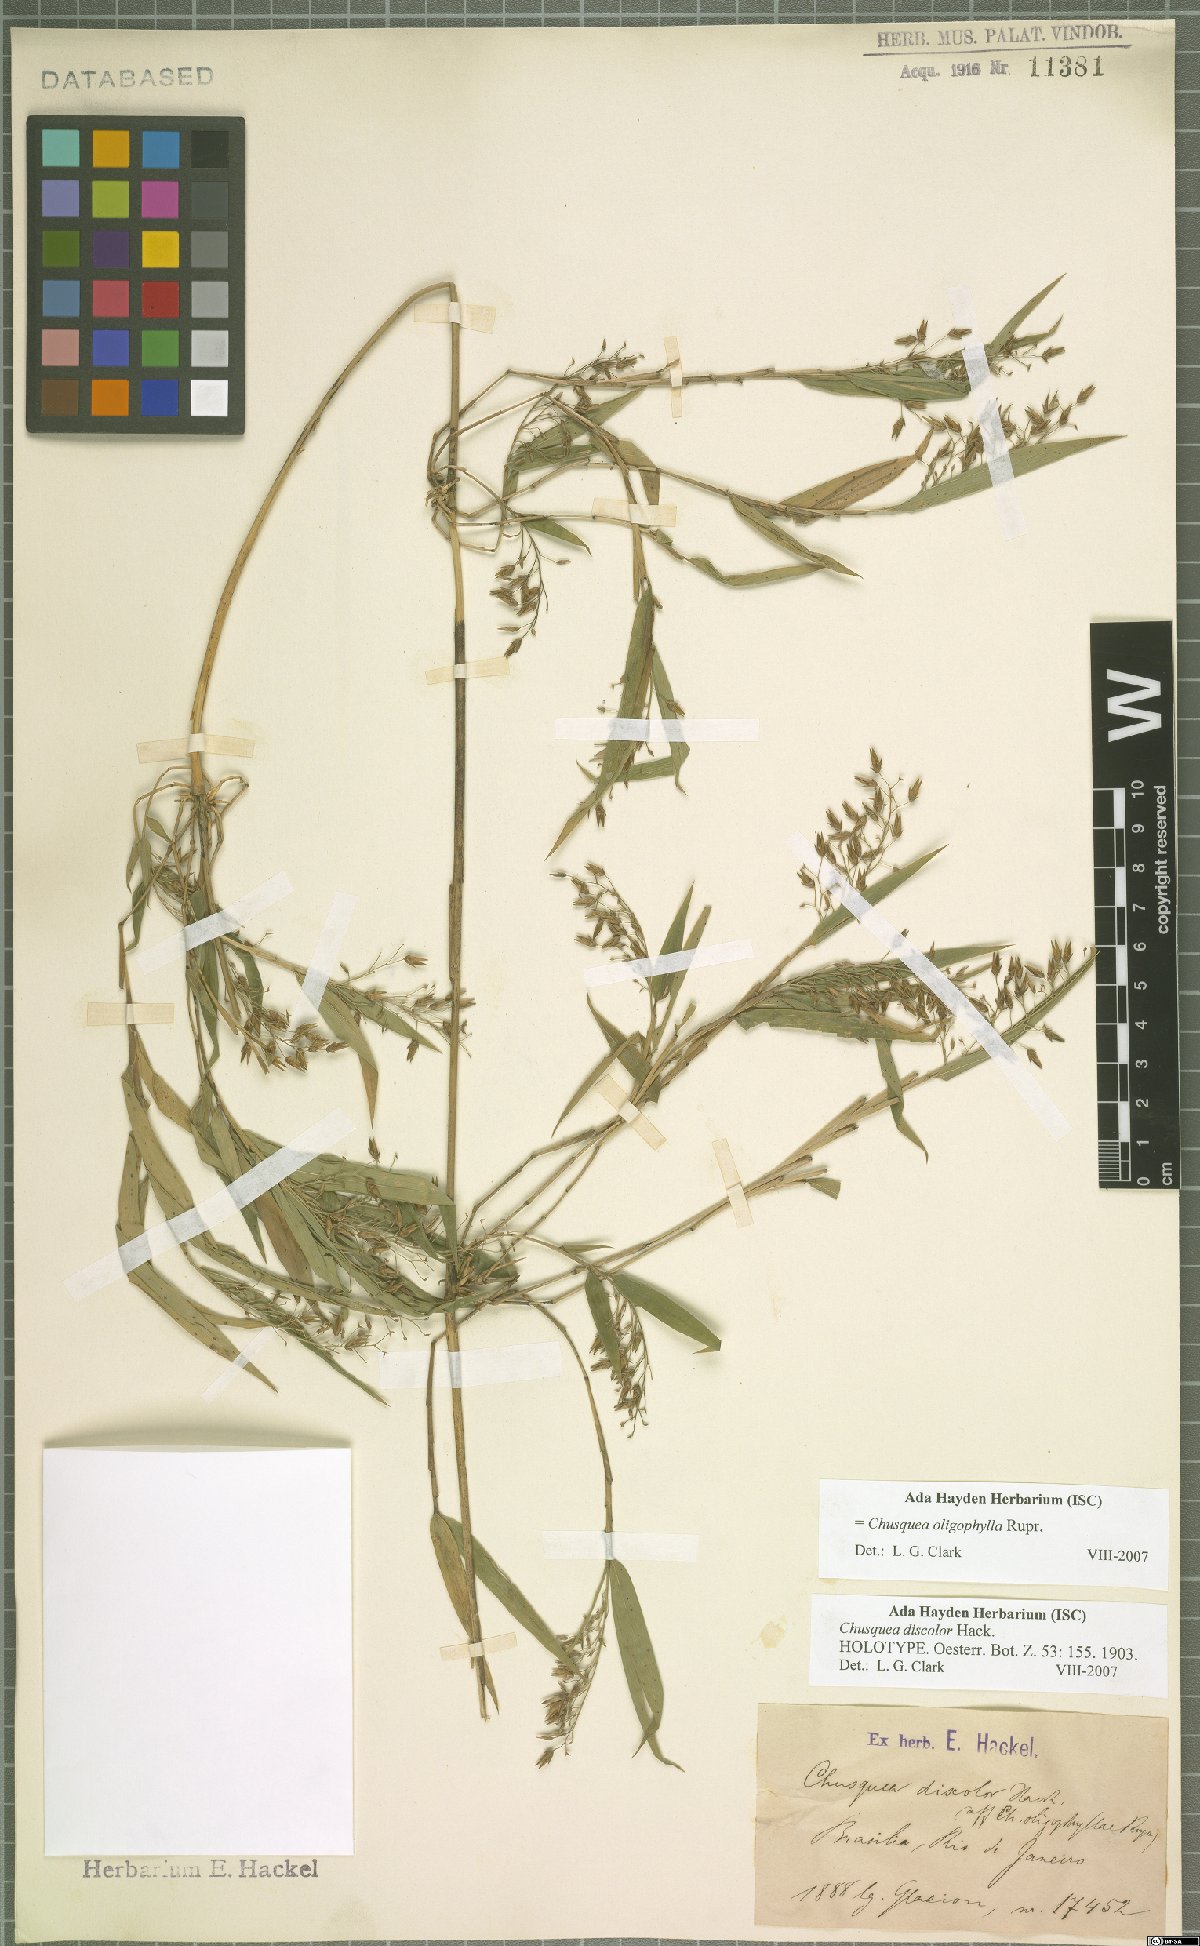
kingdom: Plantae
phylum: Tracheophyta
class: Liliopsida
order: Poales
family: Poaceae
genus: Chusquea
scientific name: Chusquea oligophylla
